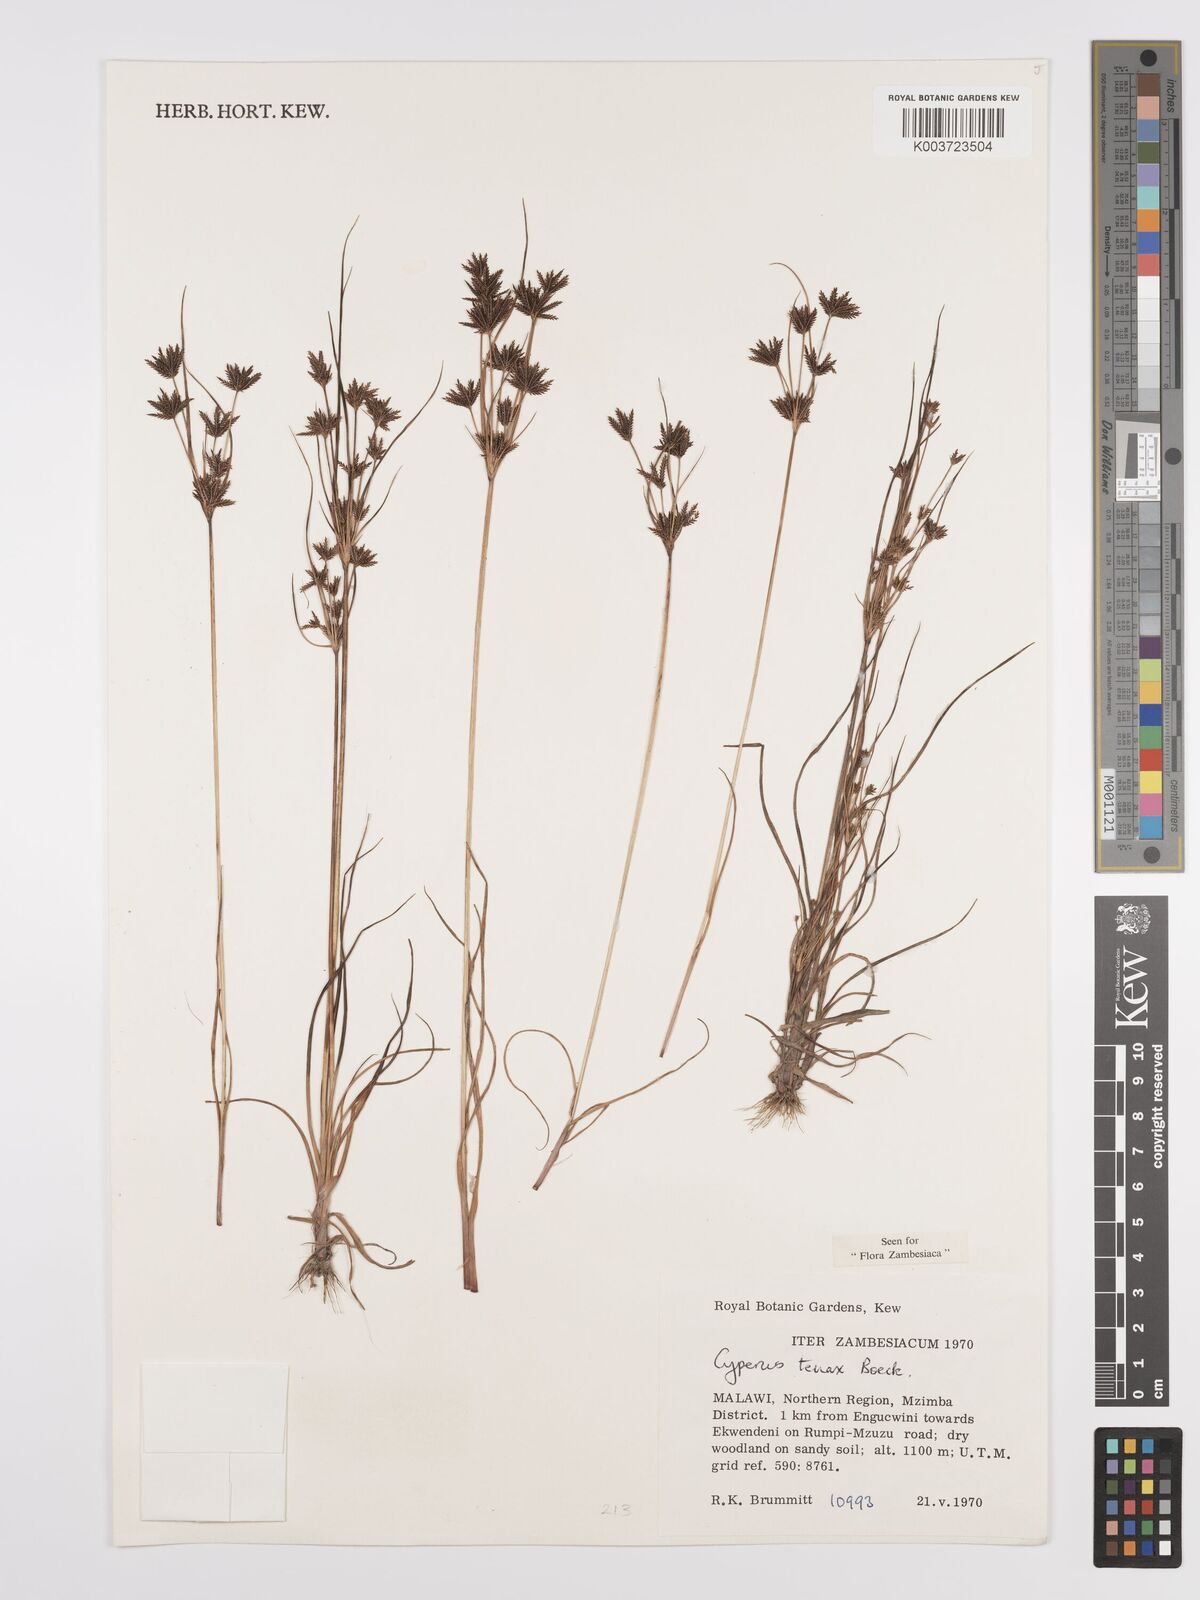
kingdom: Plantae
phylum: Tracheophyta
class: Liliopsida
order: Poales
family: Cyperaceae
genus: Cyperus
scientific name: Cyperus tenax
